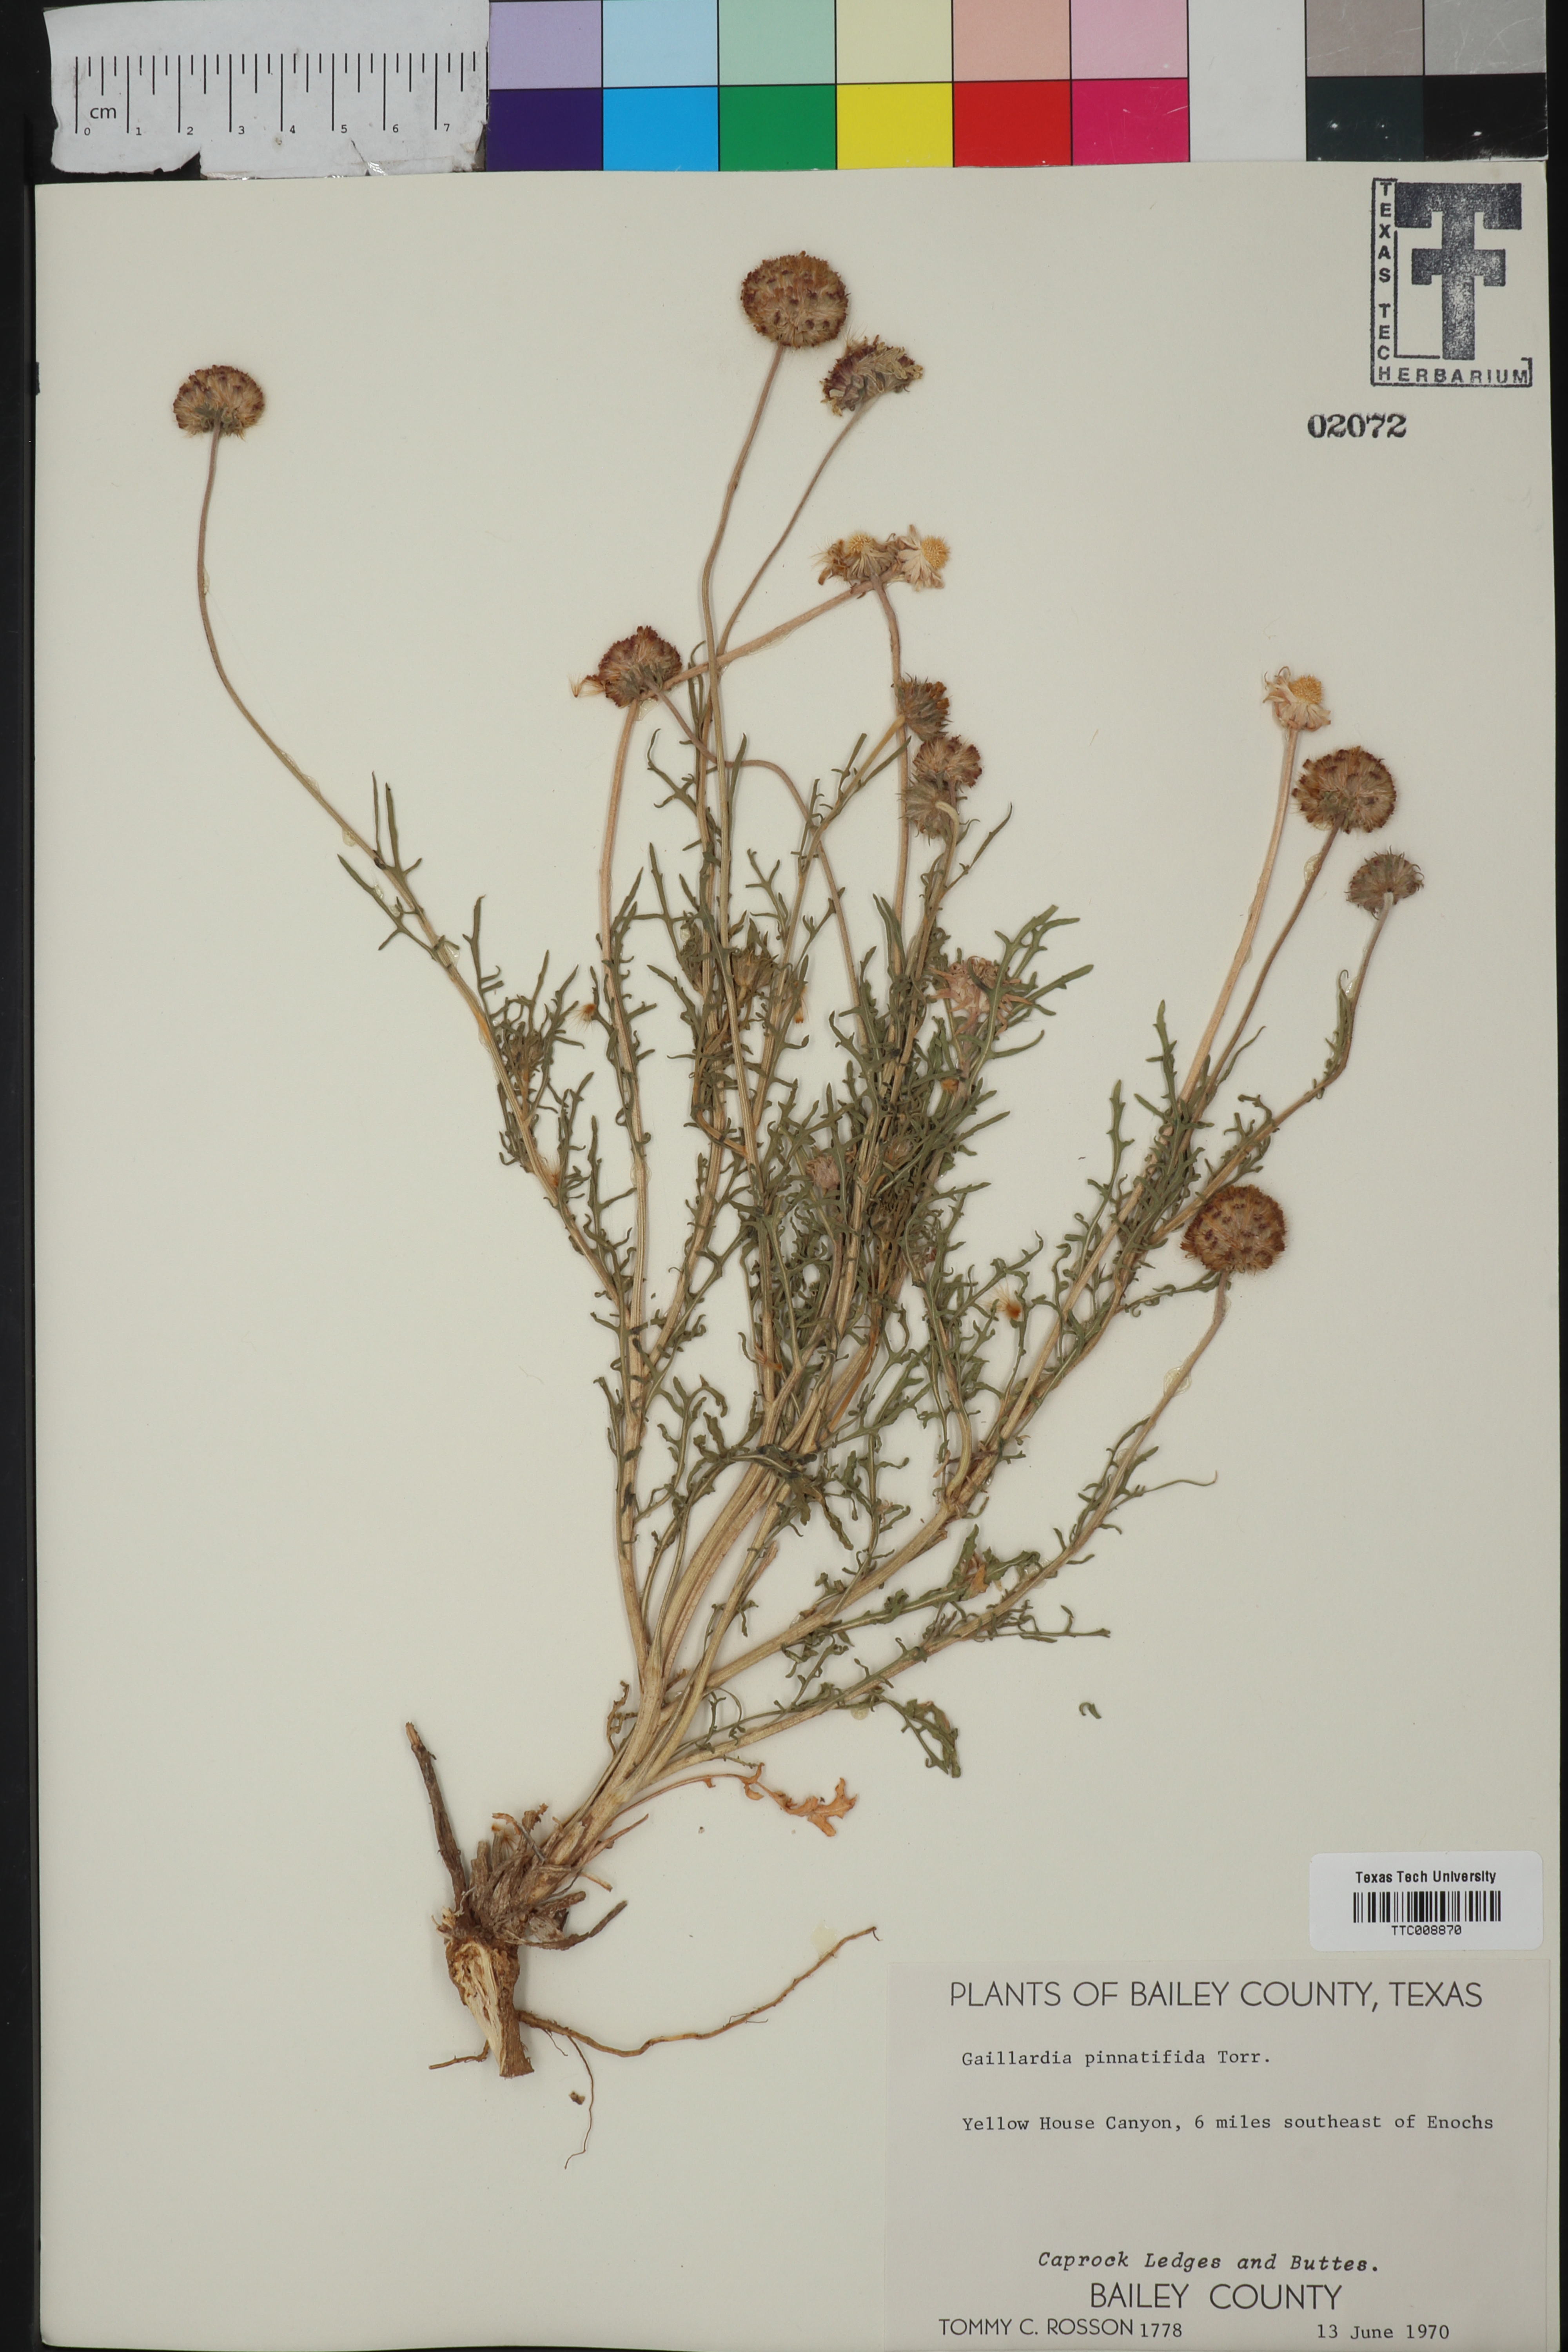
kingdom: Plantae
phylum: Tracheophyta
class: Magnoliopsida
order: Asterales
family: Asteraceae
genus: Gaillardia
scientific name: Gaillardia pinnatifida
